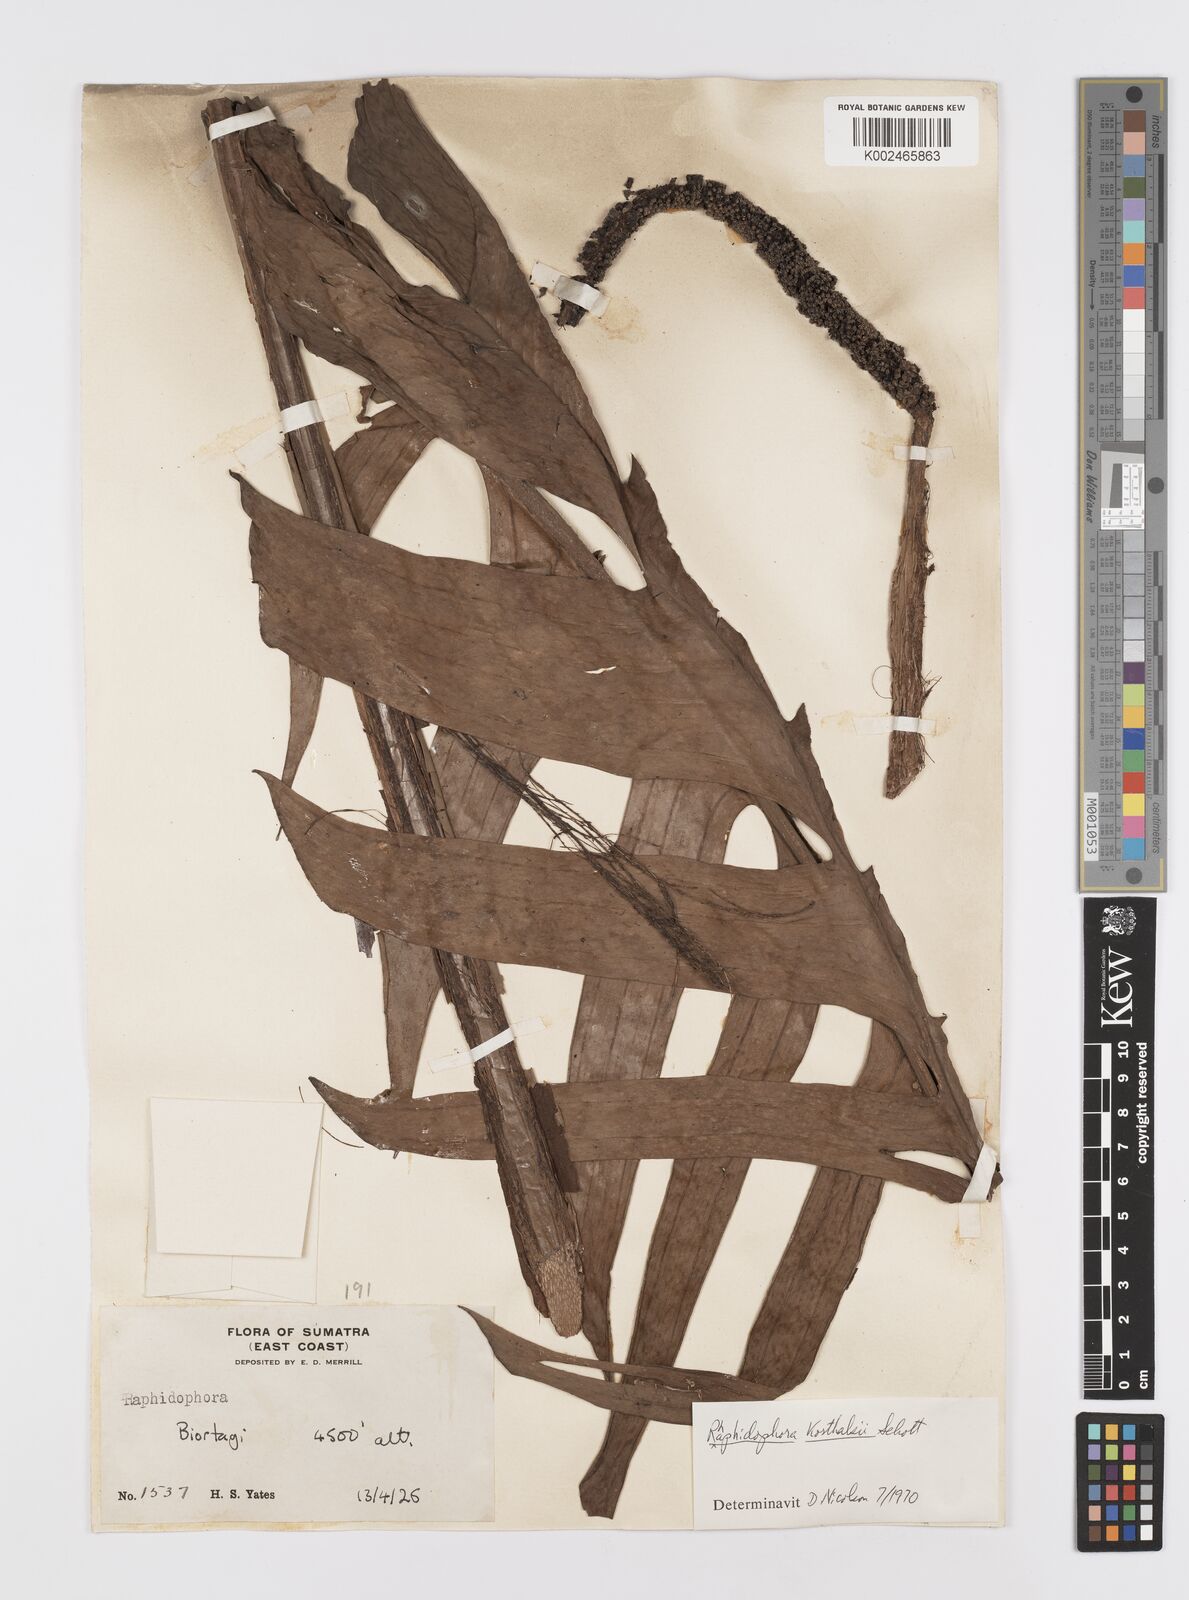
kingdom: Plantae
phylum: Tracheophyta
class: Liliopsida
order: Alismatales
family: Araceae
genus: Rhaphidophora
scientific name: Rhaphidophora korthalsii
